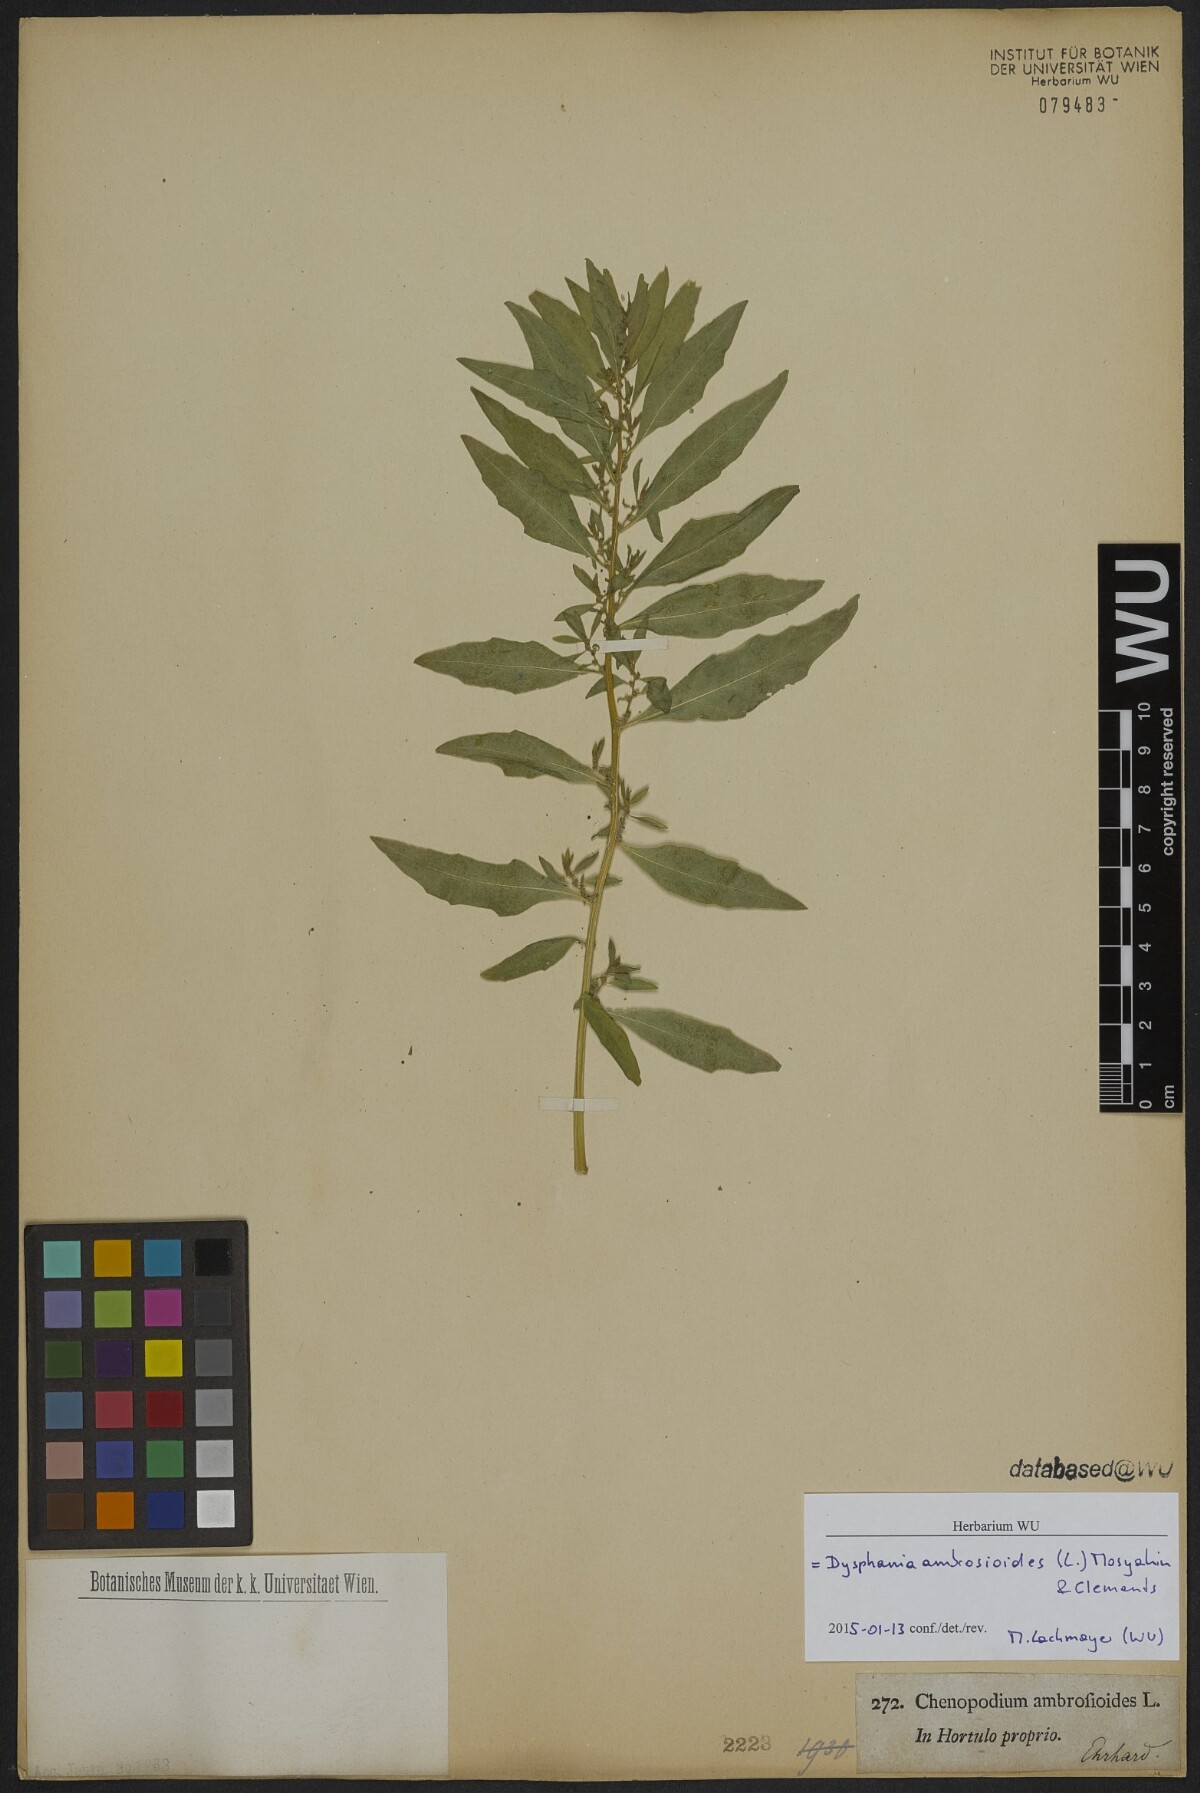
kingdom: Plantae
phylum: Tracheophyta
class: Magnoliopsida
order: Caryophyllales
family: Amaranthaceae
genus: Dysphania
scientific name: Dysphania ambrosioides
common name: Wormseed
